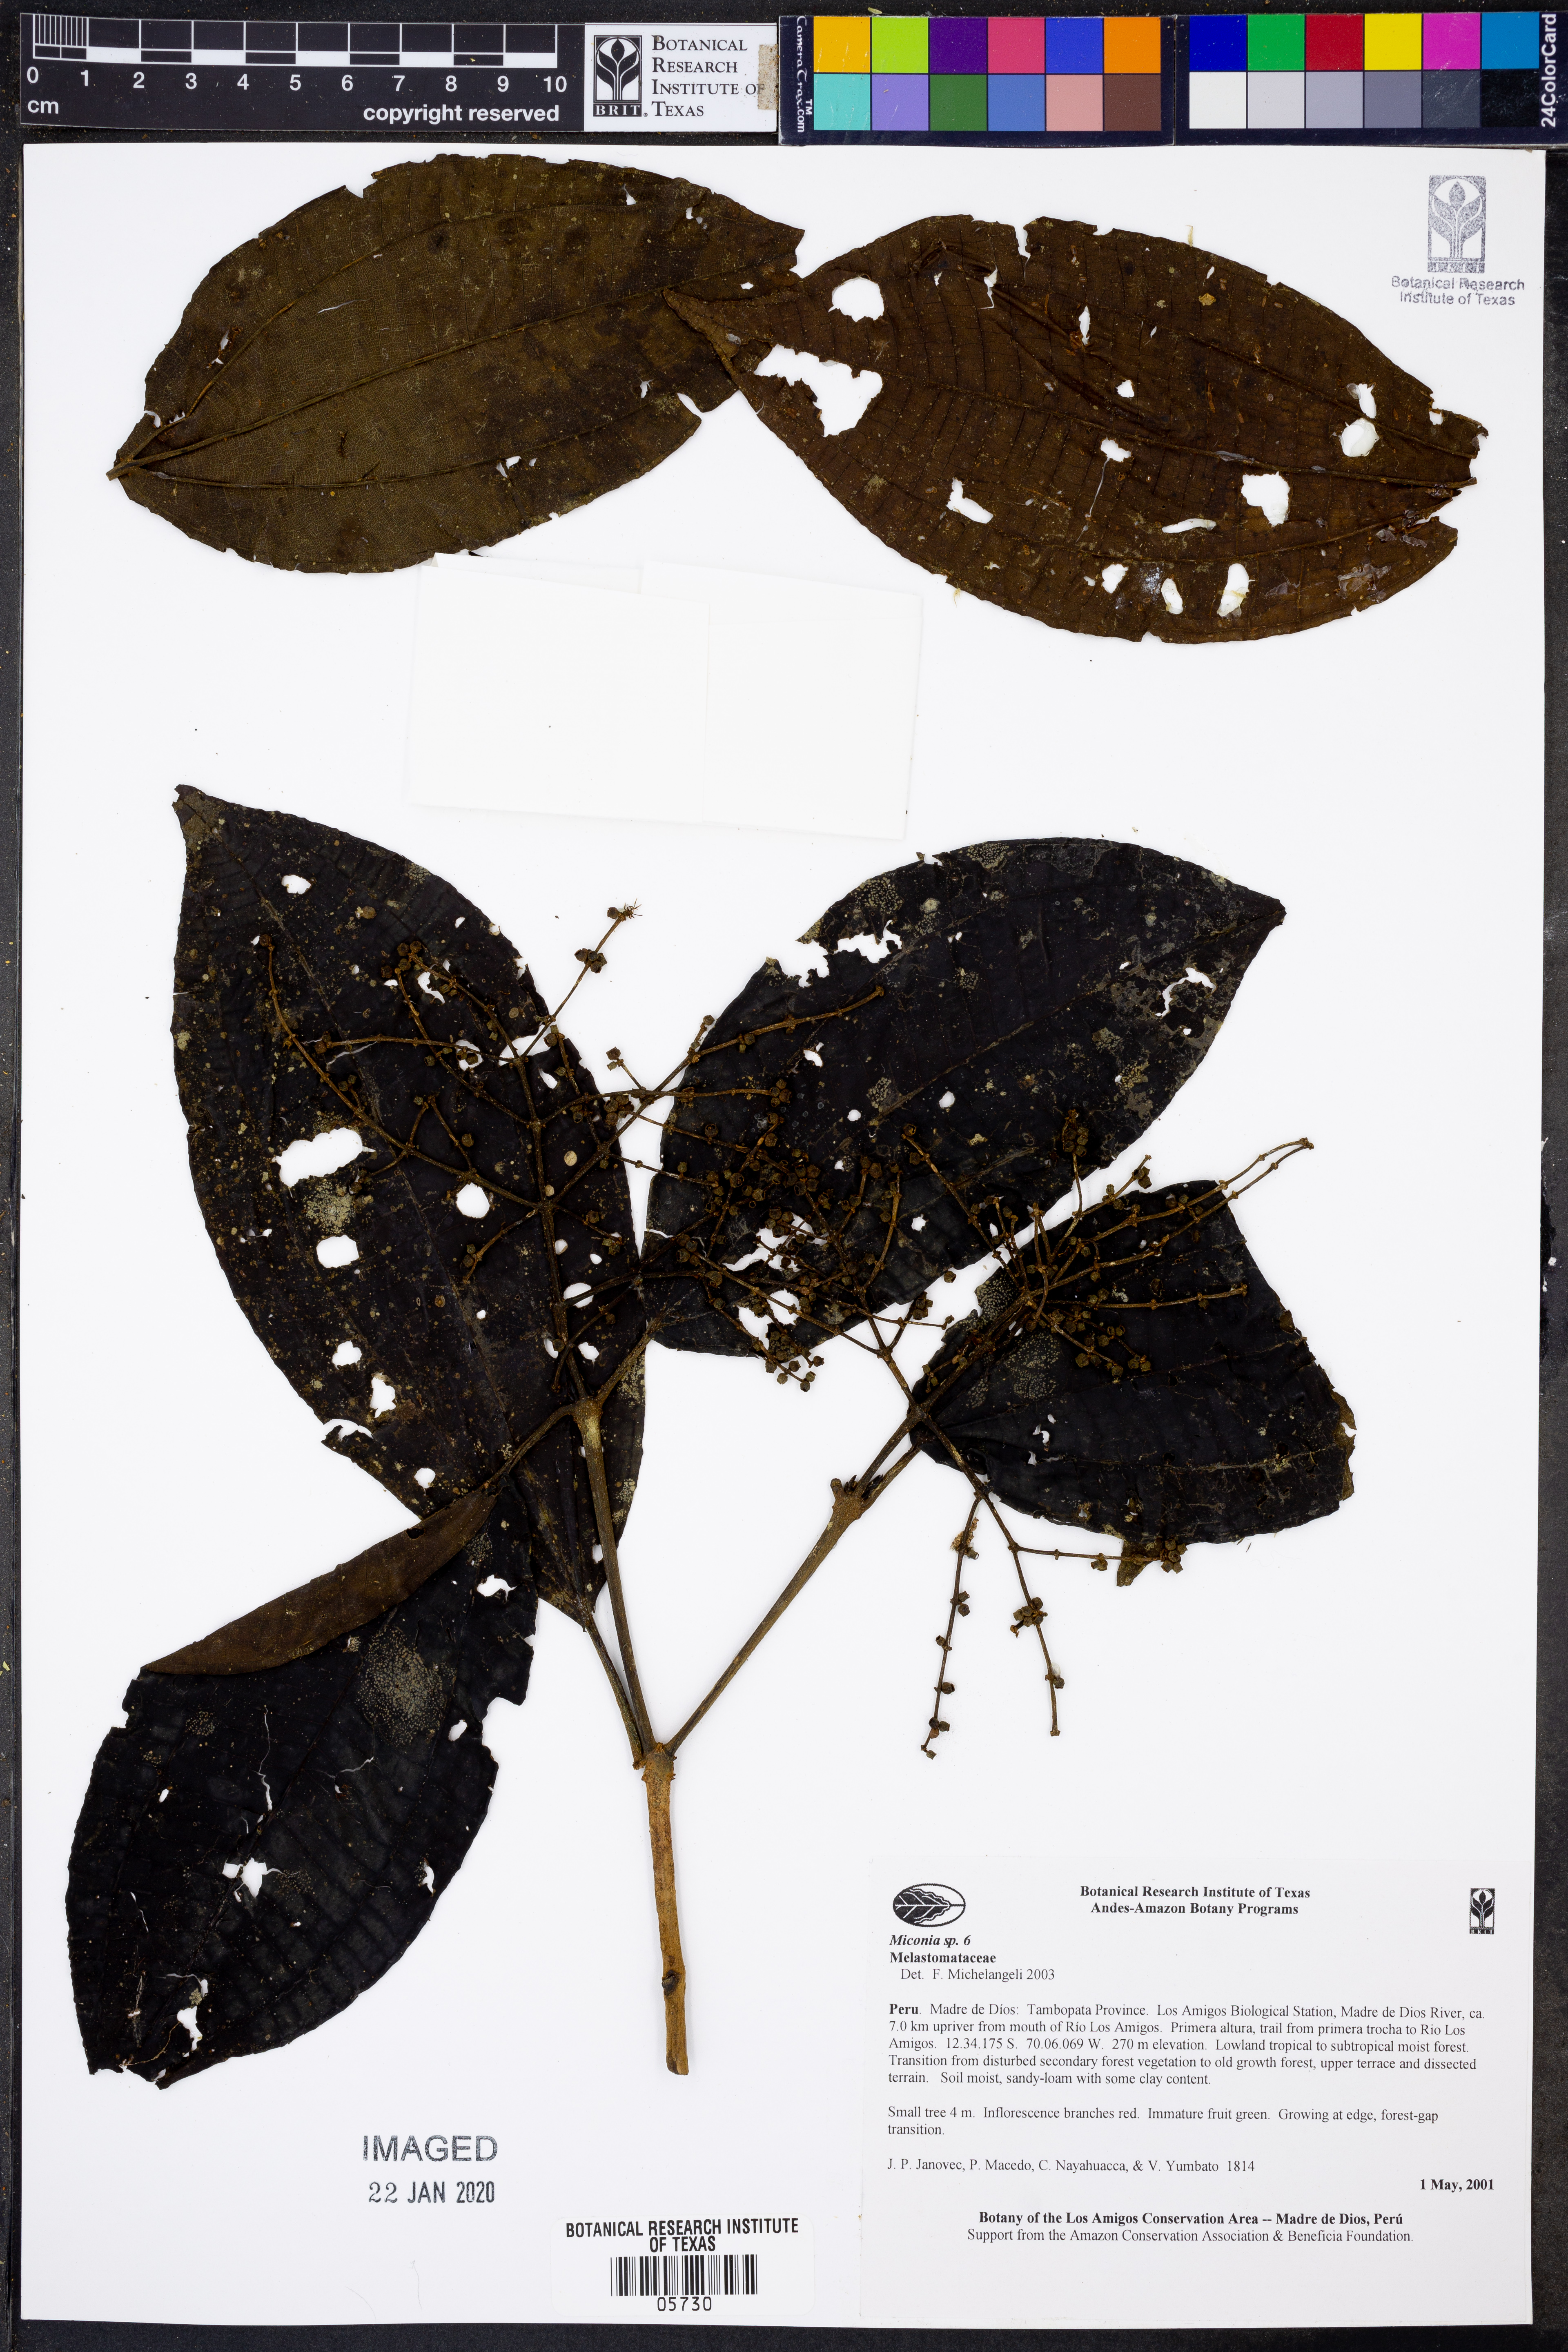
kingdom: Plantae
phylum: Tracheophyta
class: Magnoliopsida
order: Myrtales
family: Melastomataceae
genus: Miconia
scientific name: Miconia
